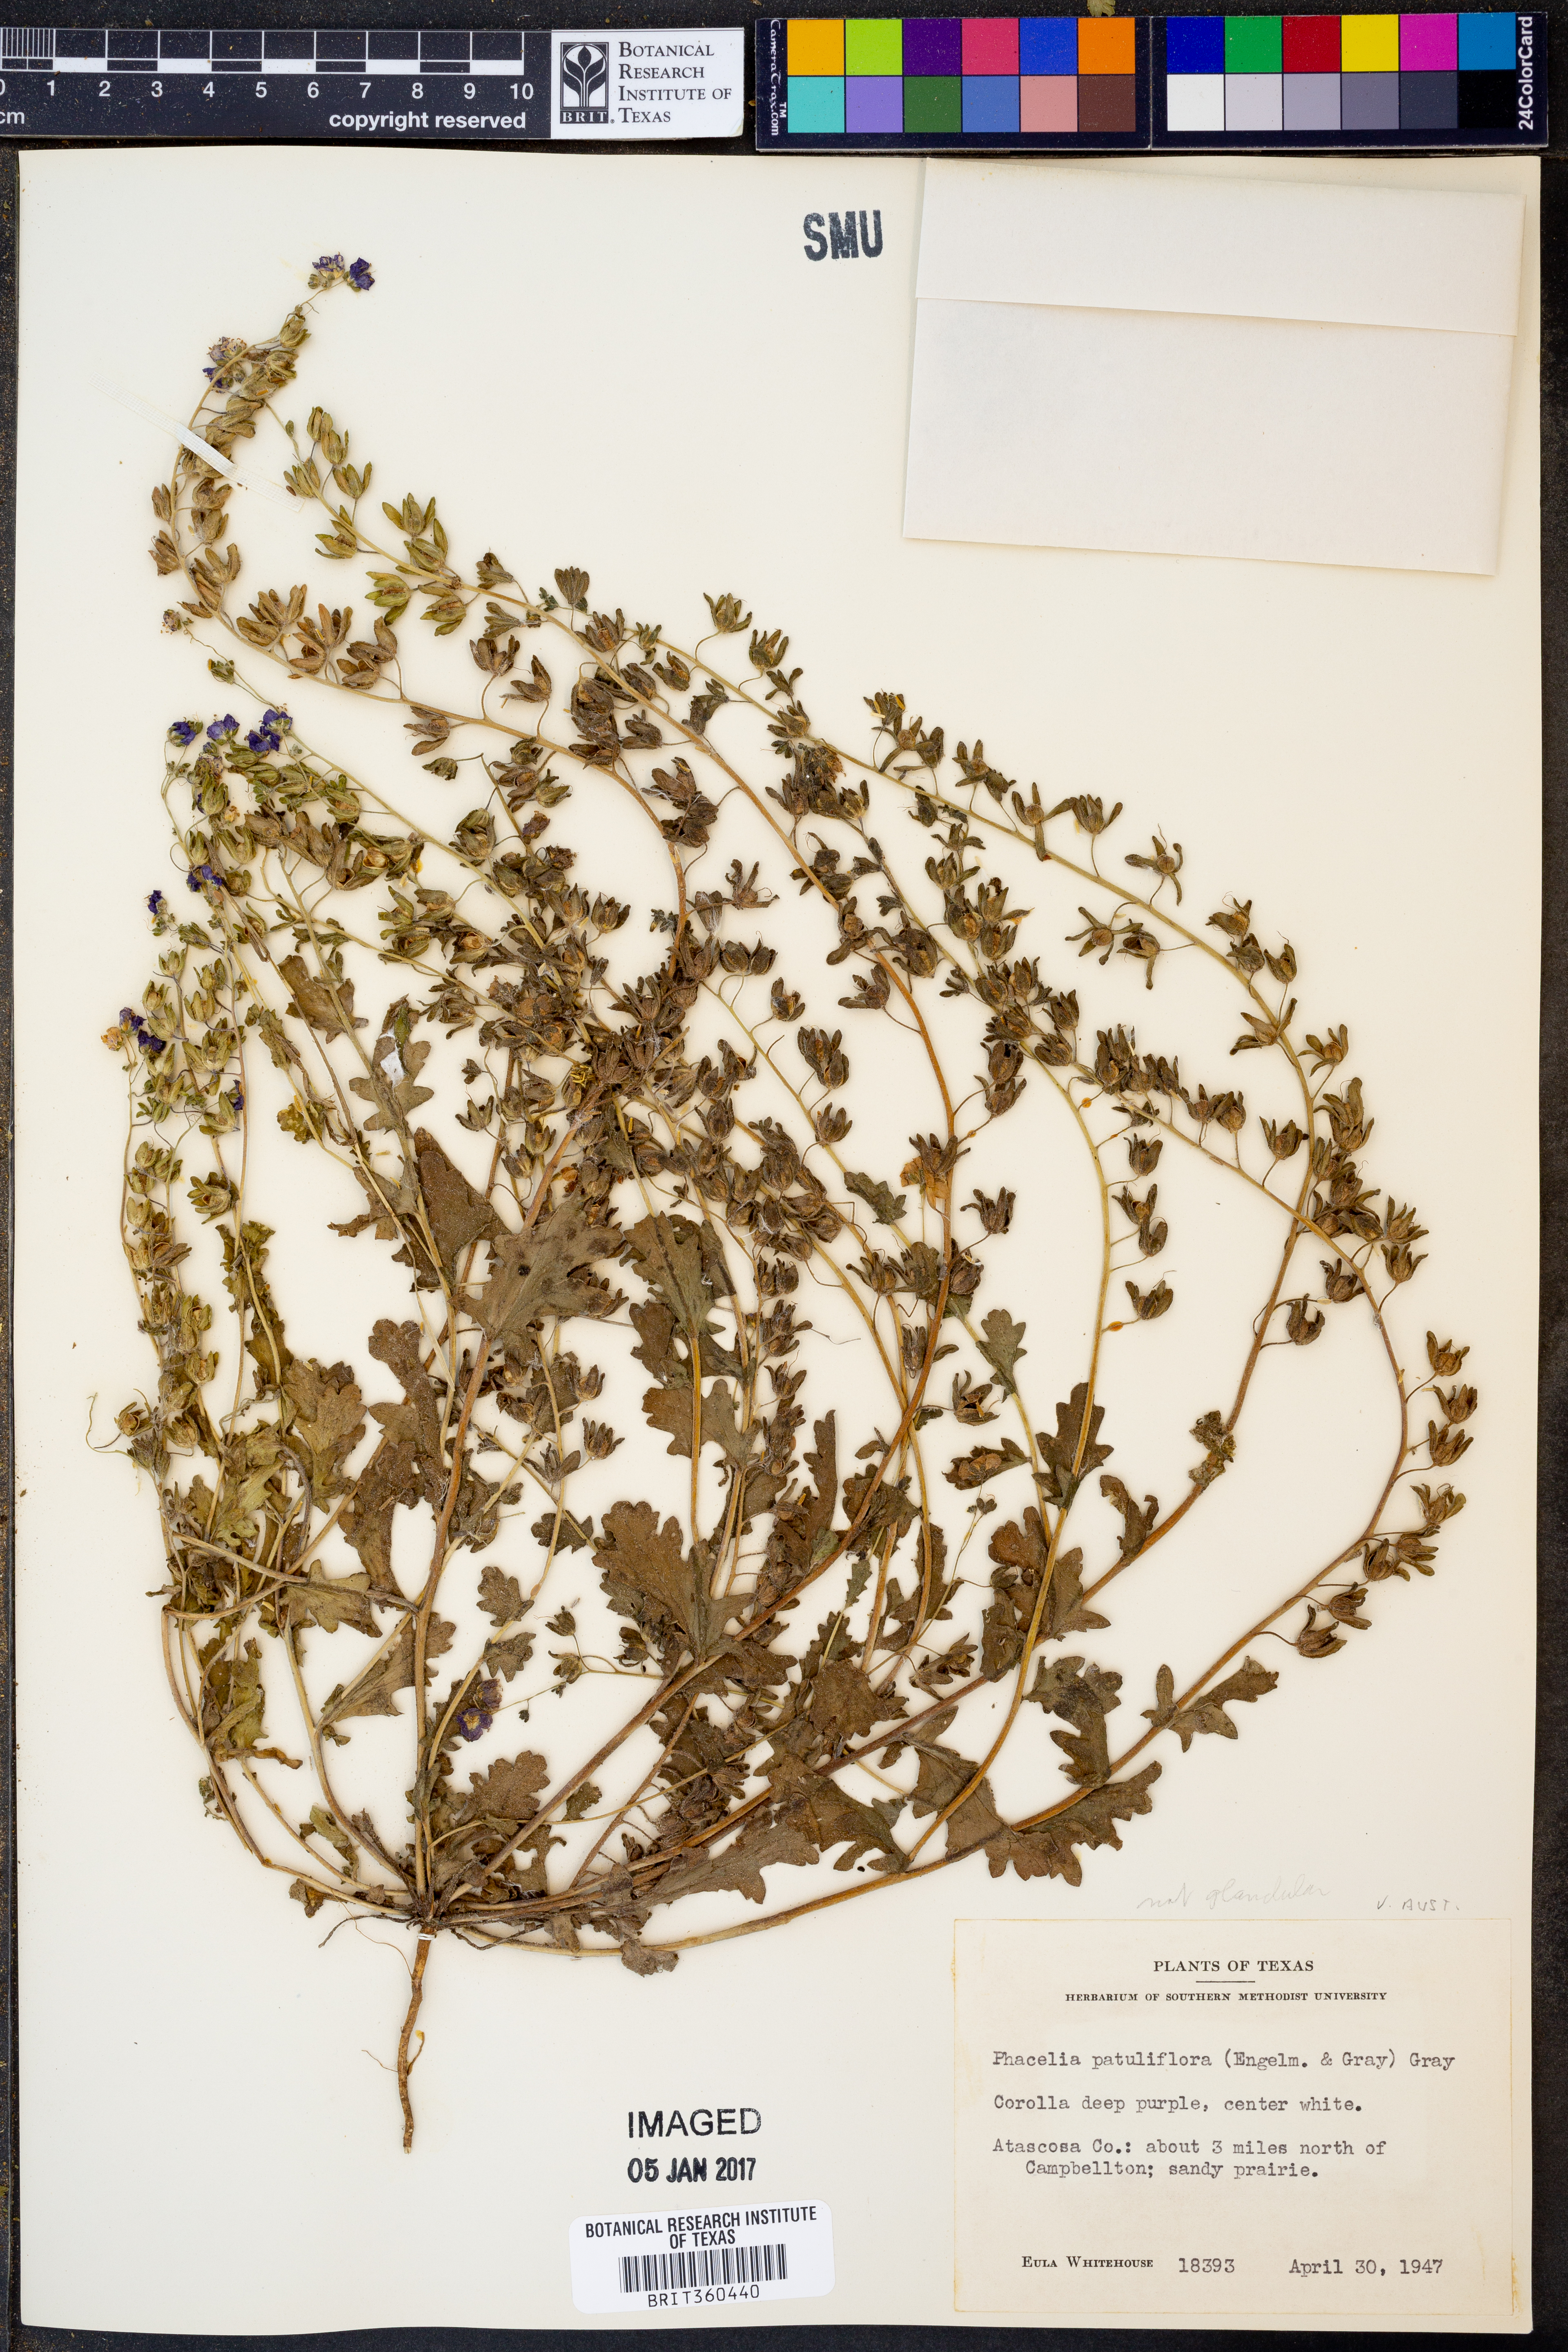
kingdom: Plantae
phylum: Tracheophyta
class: Magnoliopsida
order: Boraginales
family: Hydrophyllaceae
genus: Phacelia
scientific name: Phacelia patuliflora
